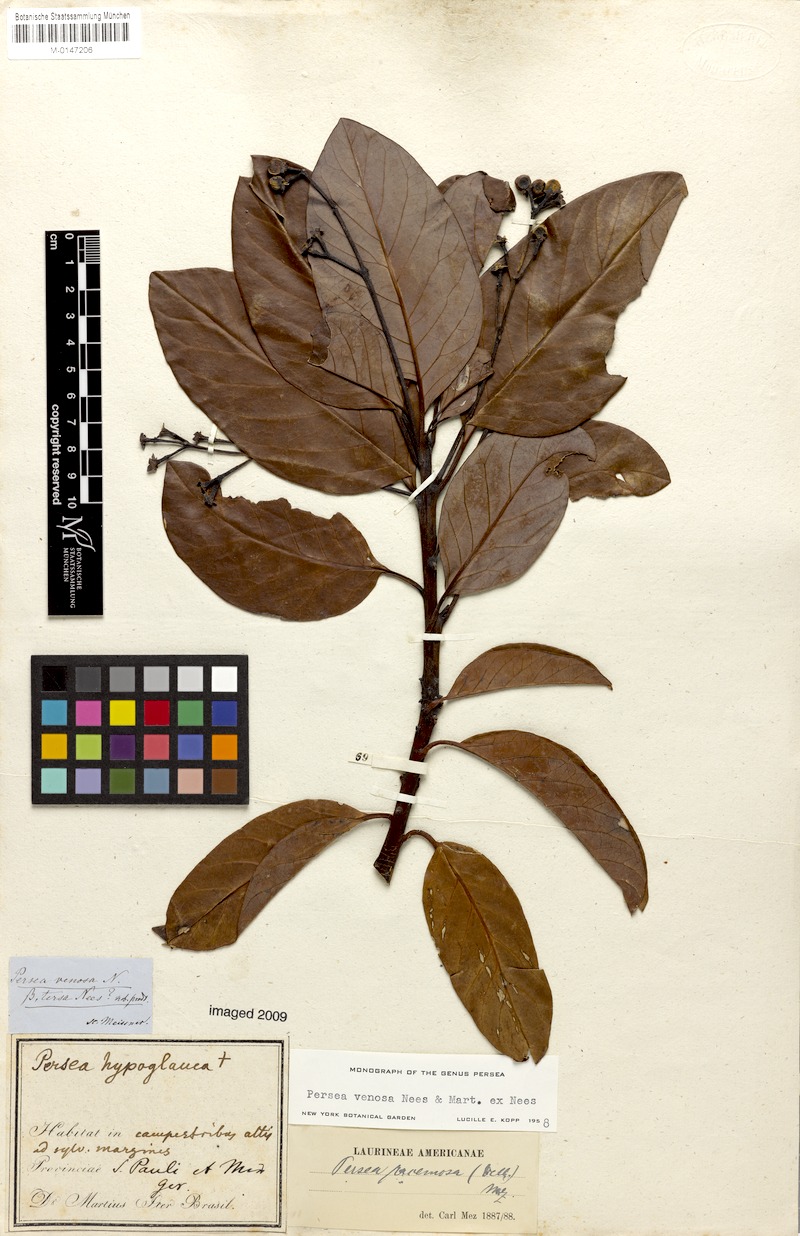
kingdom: Plantae
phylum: Tracheophyta
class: Magnoliopsida
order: Laurales
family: Lauraceae
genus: Persea
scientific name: Persea venosa
